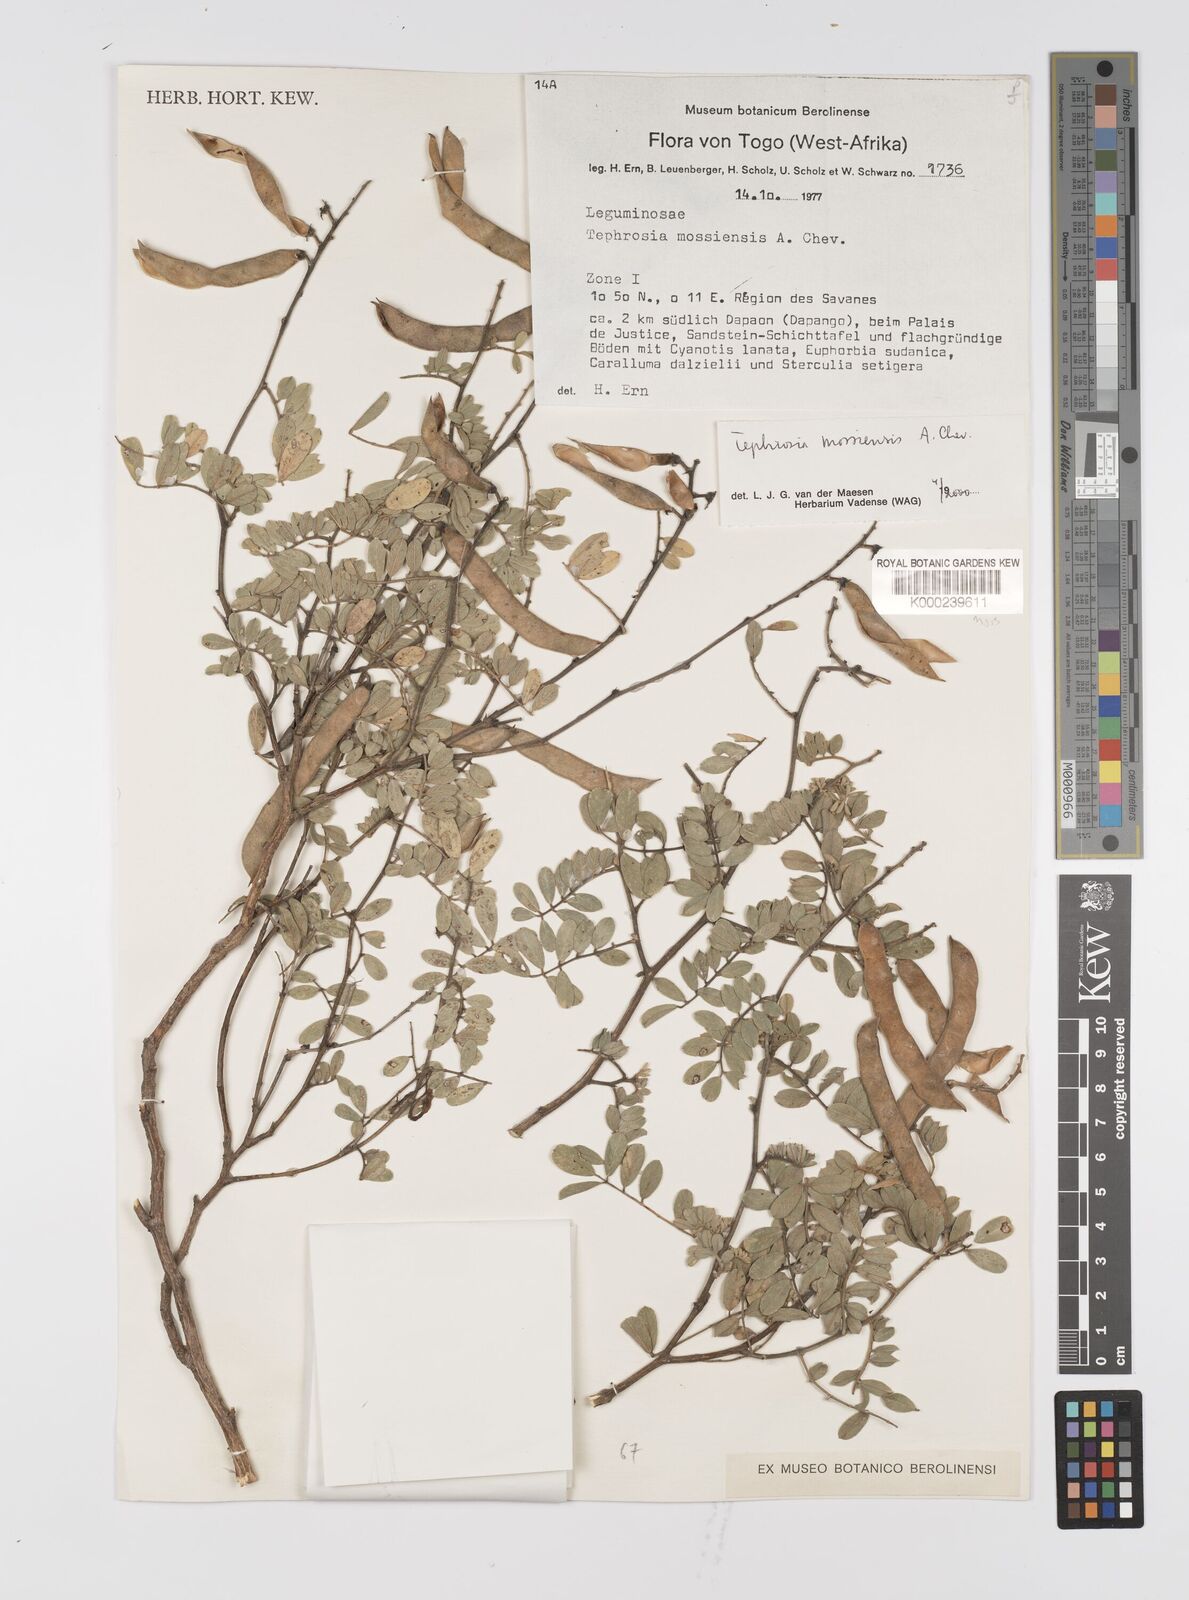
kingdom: Plantae
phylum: Tracheophyta
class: Magnoliopsida
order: Fabales
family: Fabaceae
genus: Tephrosia
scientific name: Tephrosia mossiensis
